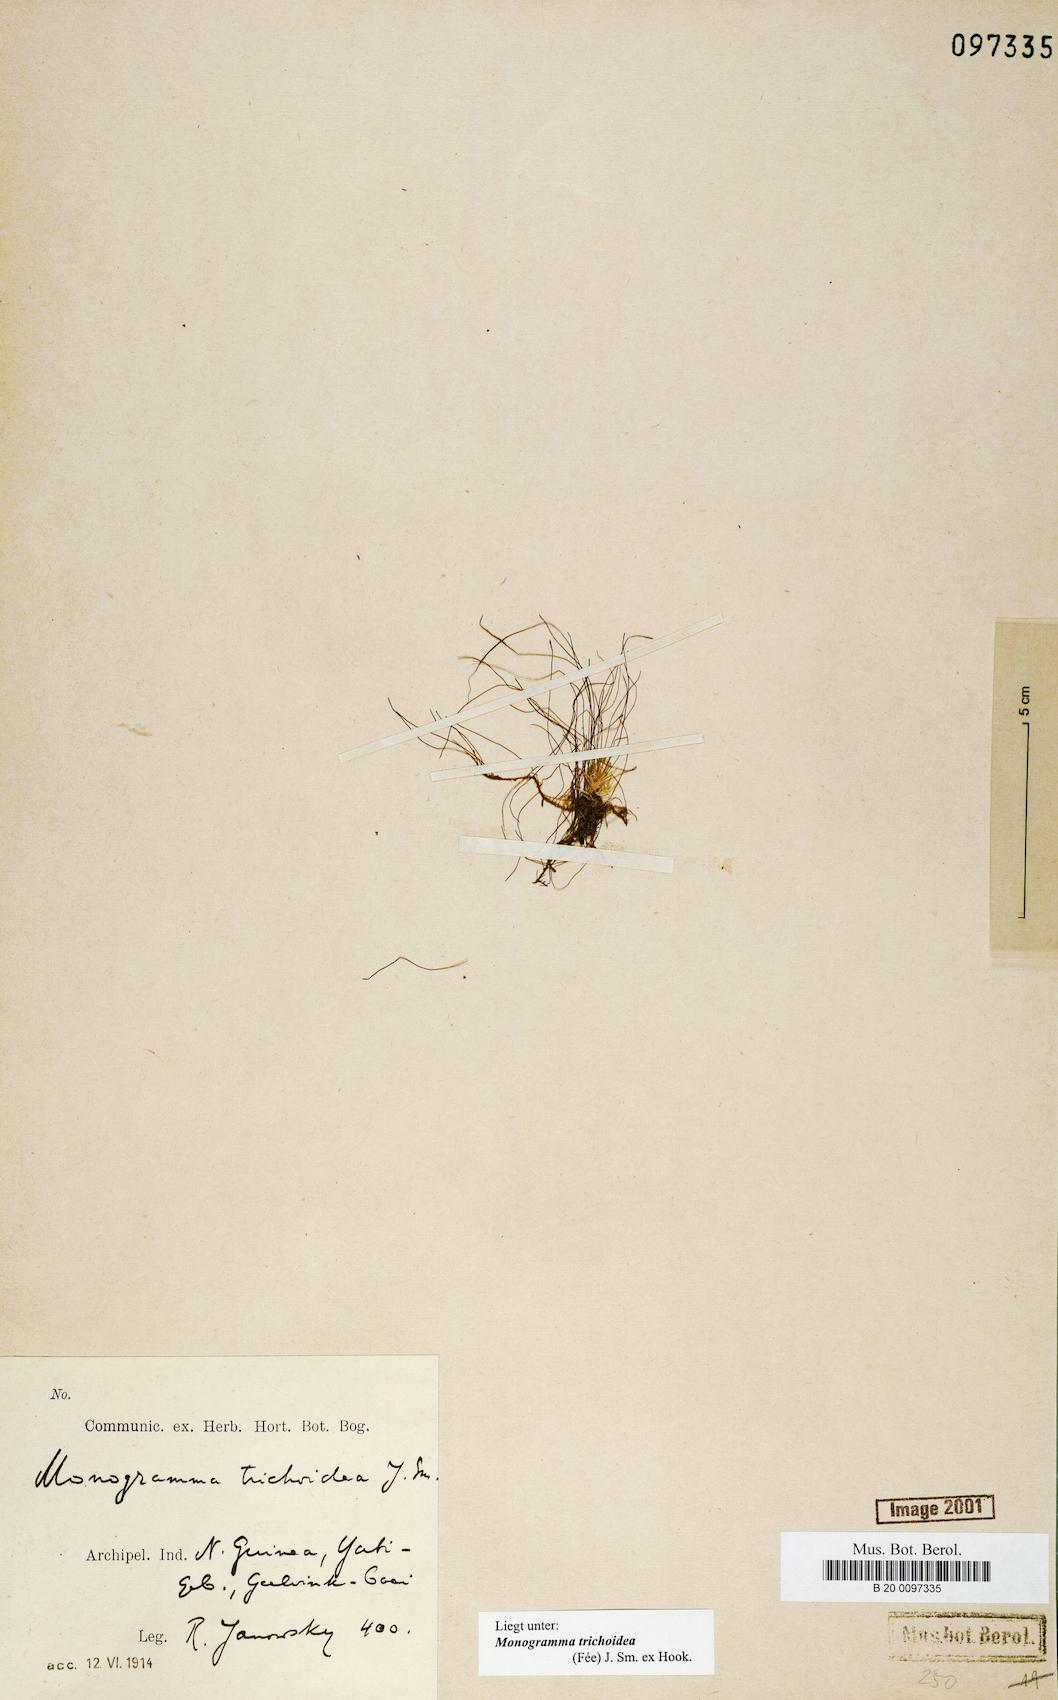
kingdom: Plantae
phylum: Tracheophyta
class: Polypodiopsida
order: Polypodiales
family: Pteridaceae
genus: Vaginularia
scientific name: Vaginularia trichoidea
